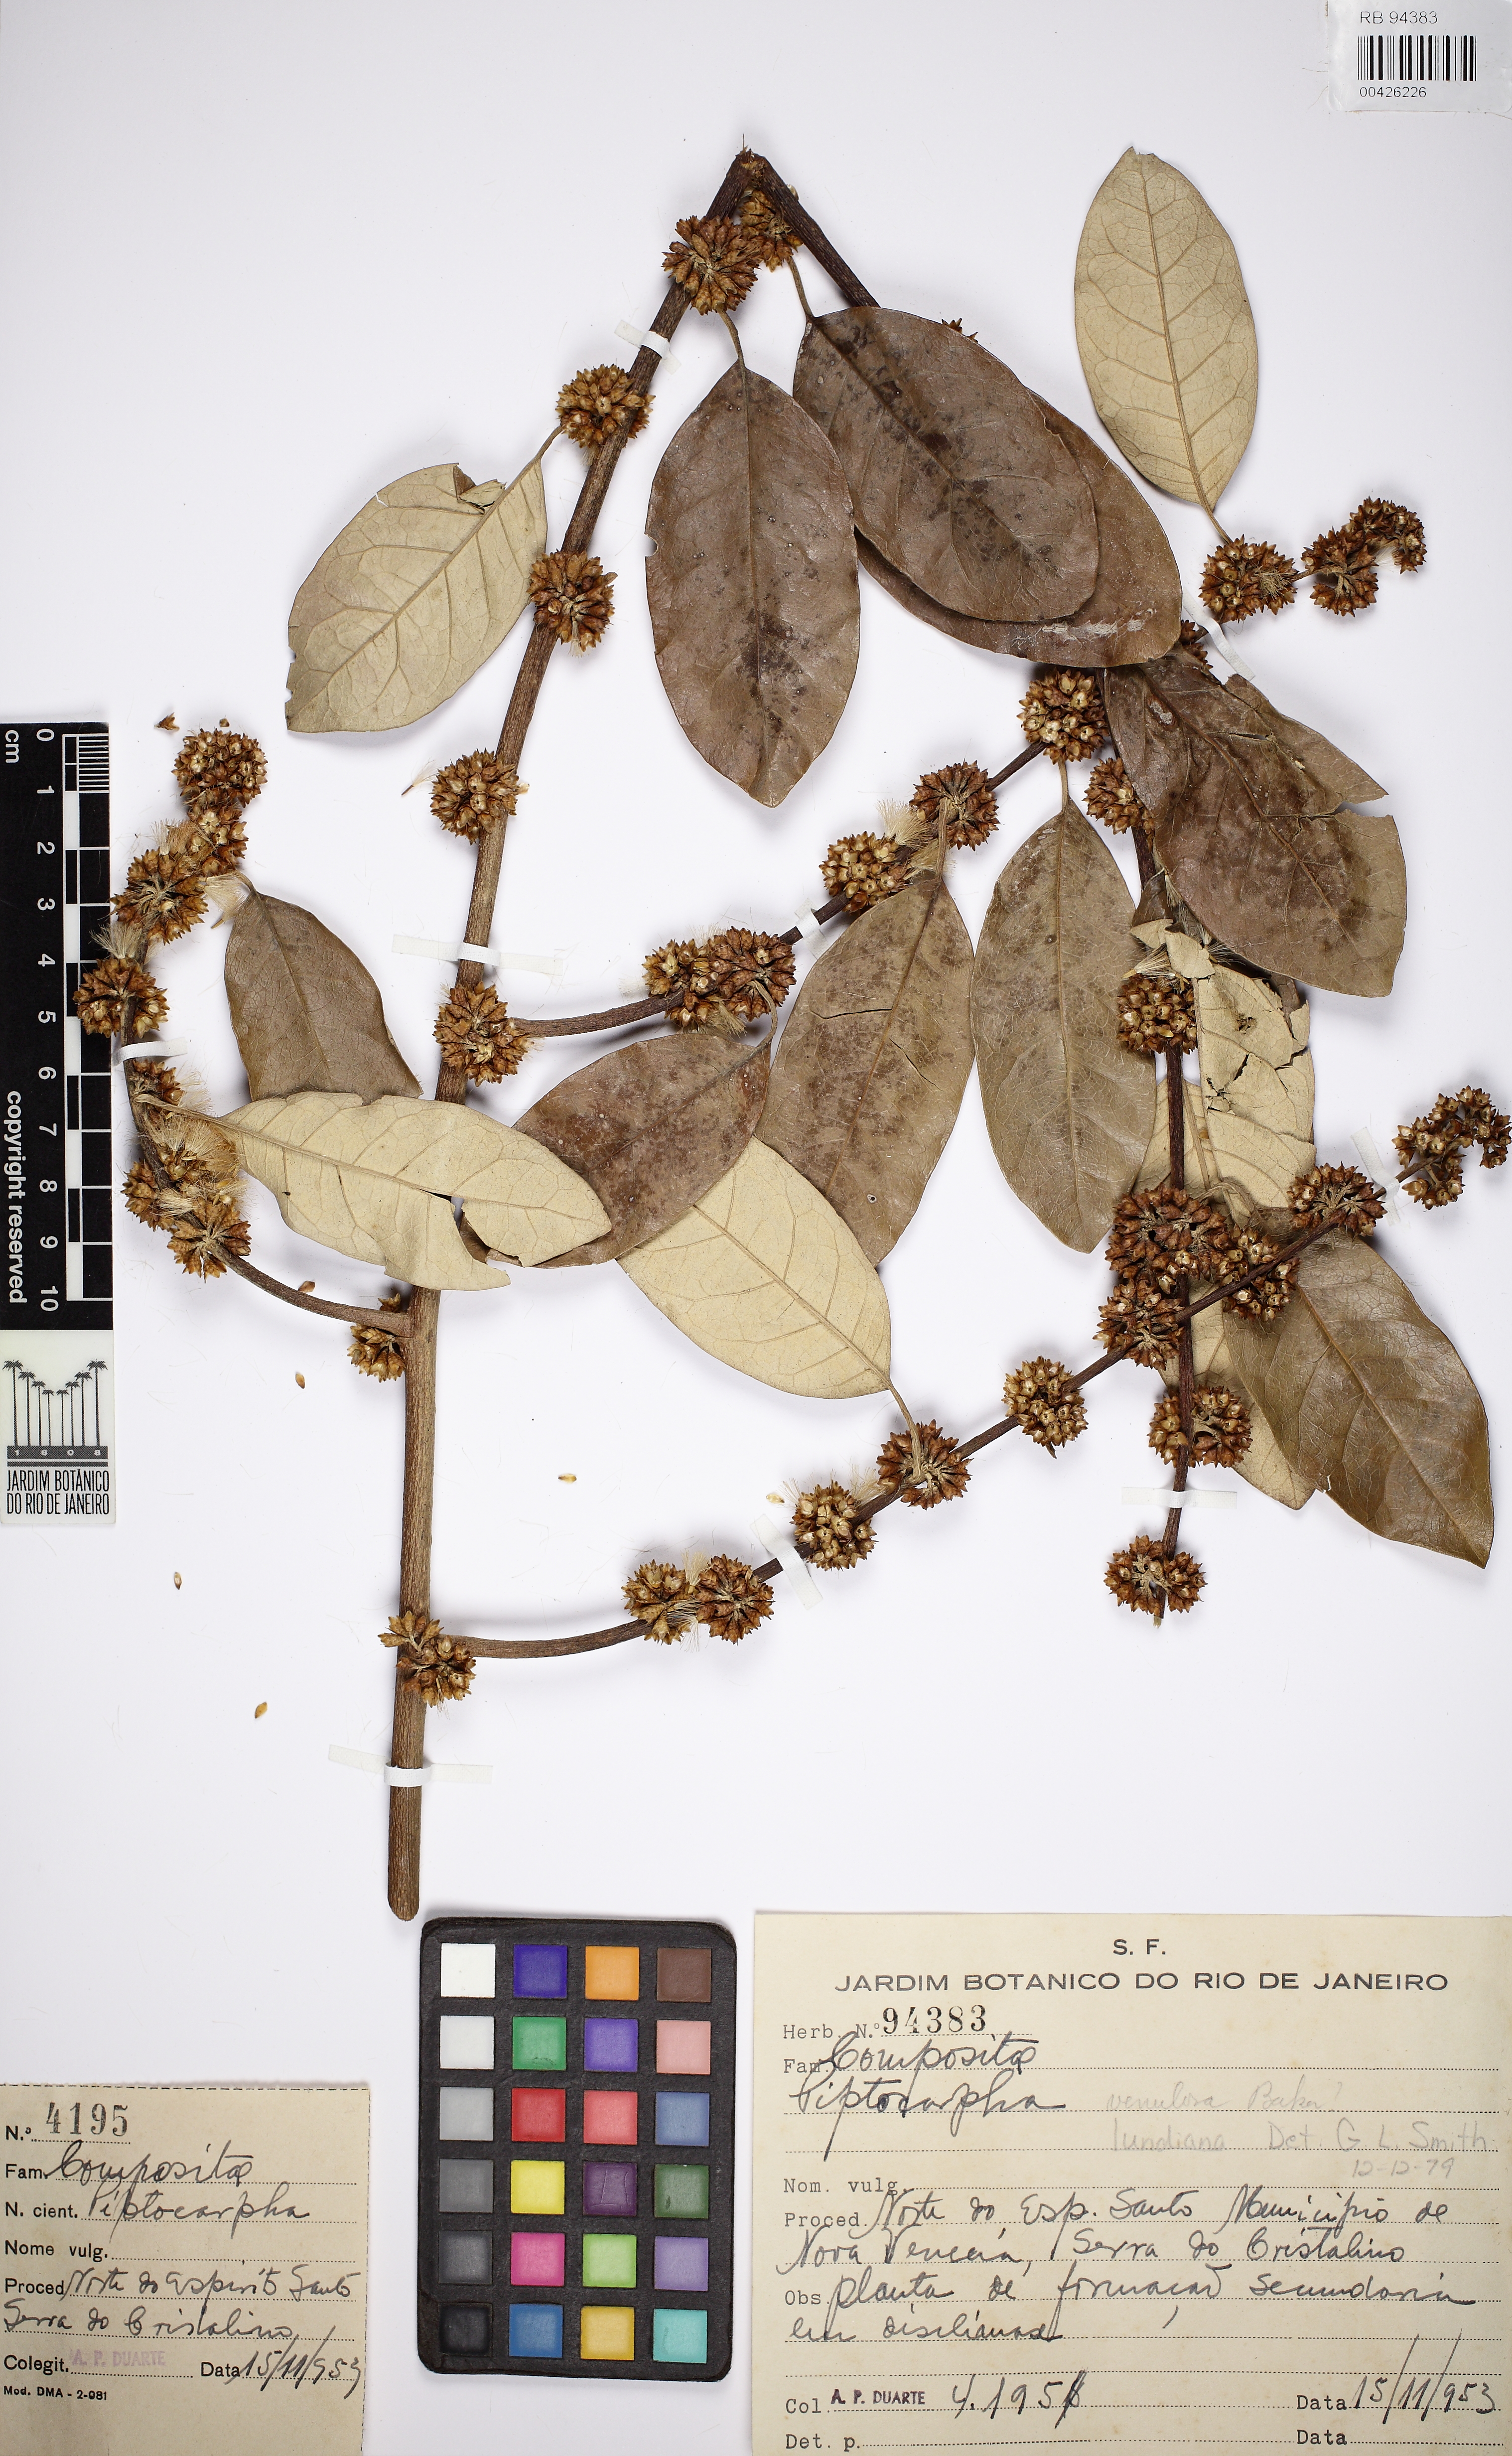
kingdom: Plantae
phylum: Tracheophyta
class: Magnoliopsida
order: Asterales
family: Asteraceae
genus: Piptocarpha
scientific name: Piptocarpha lundiana
